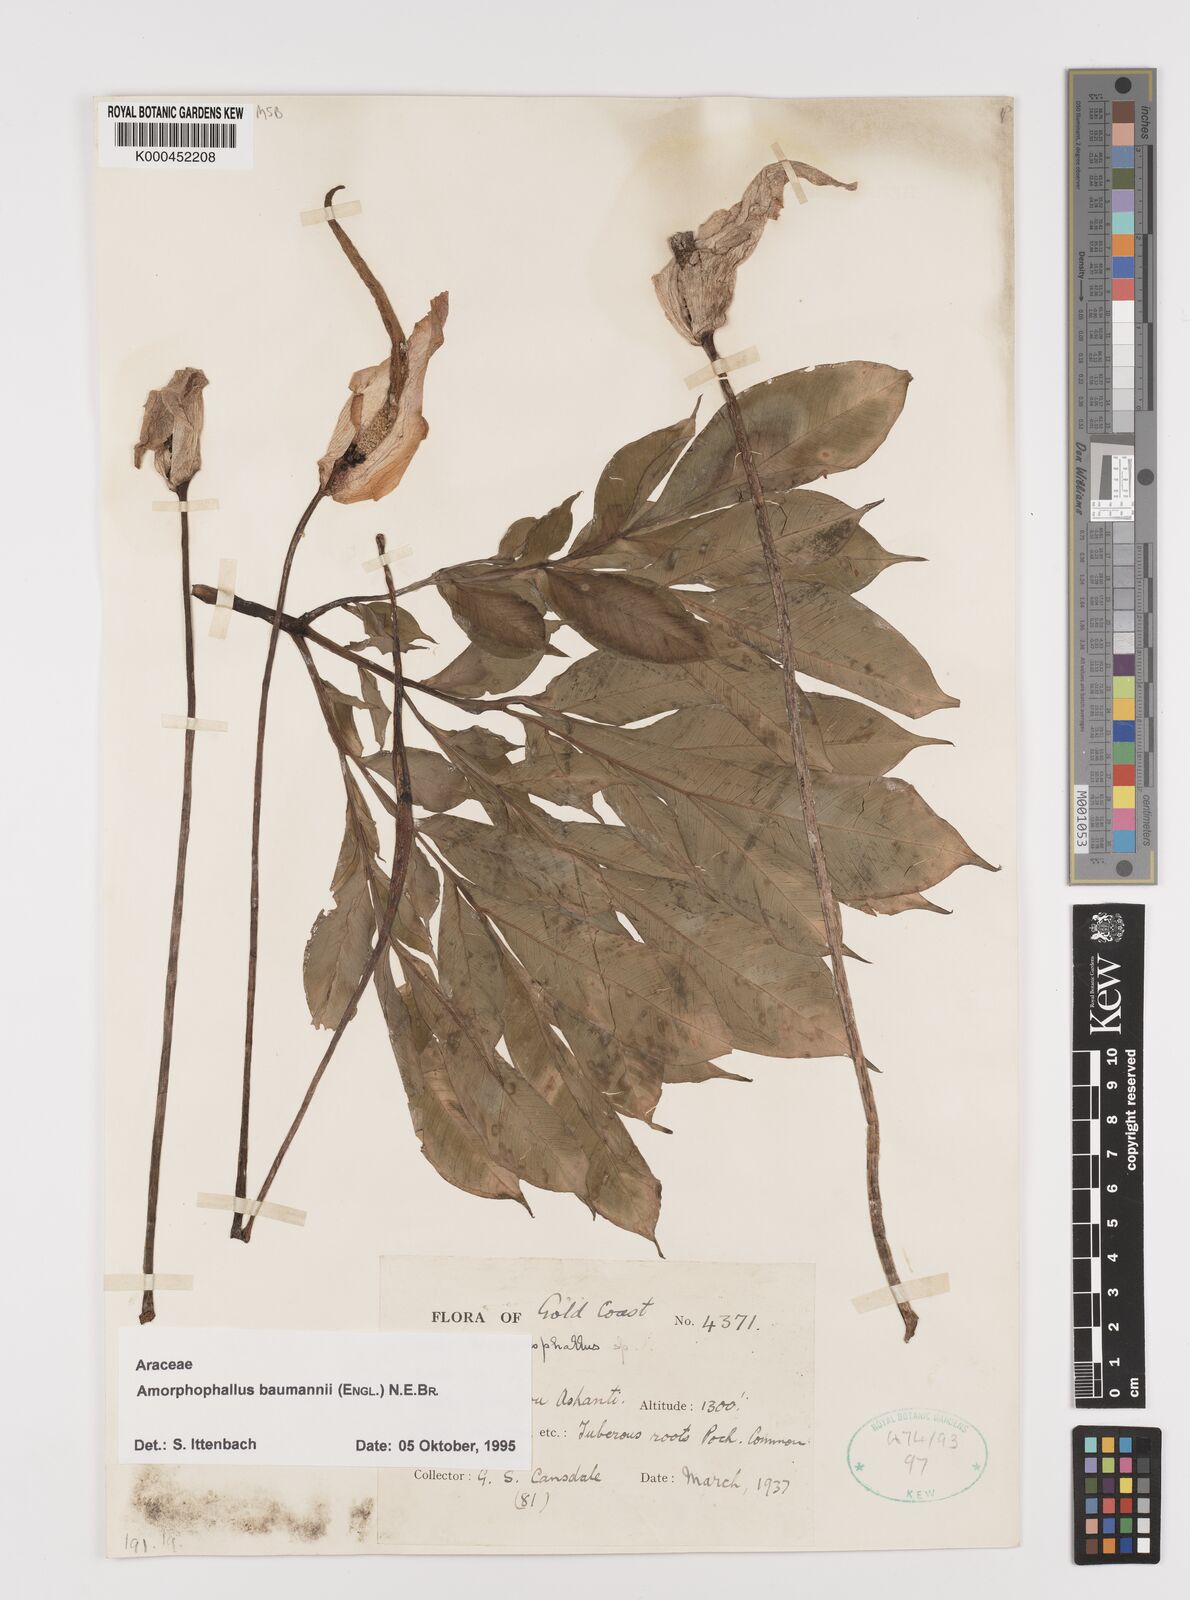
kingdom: Plantae
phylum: Tracheophyta
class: Liliopsida
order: Alismatales
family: Araceae
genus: Amorphophallus
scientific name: Amorphophallus baumannii
